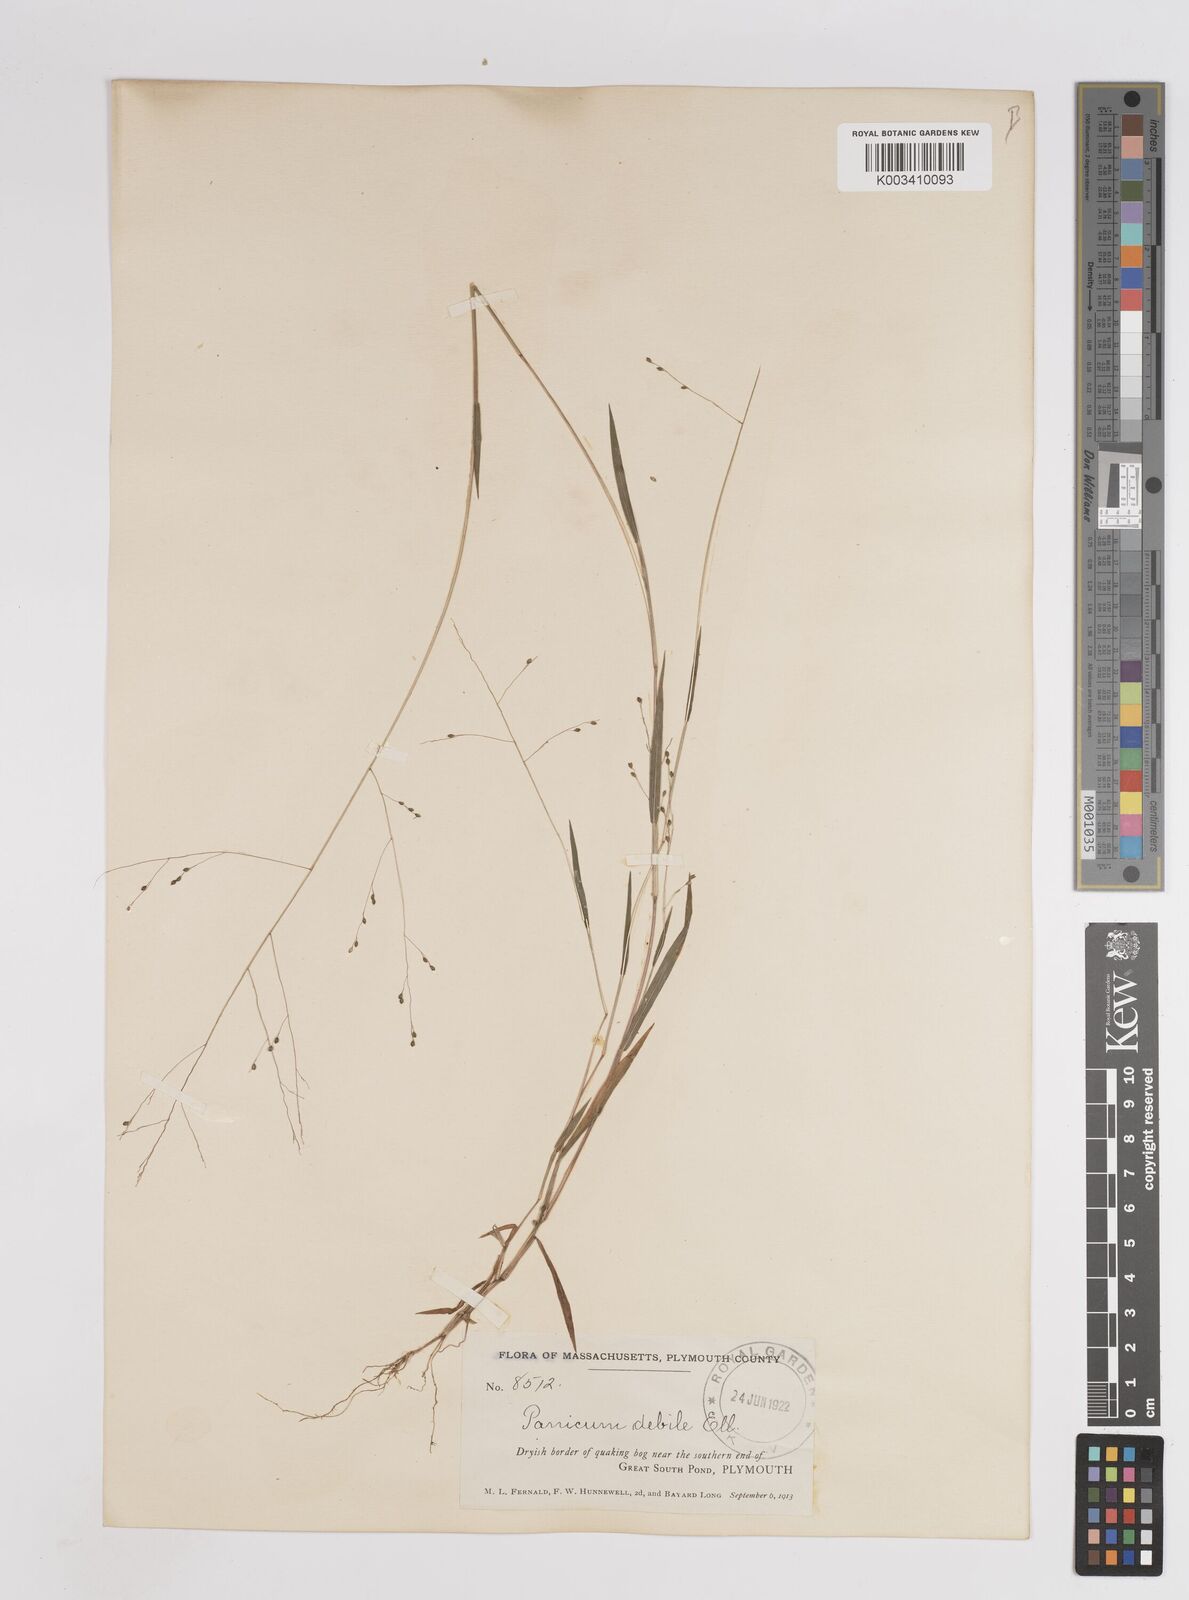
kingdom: Plantae
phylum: Tracheophyta
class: Liliopsida
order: Poales
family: Poaceae
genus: Kellochloa
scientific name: Kellochloa verrucosa
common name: Warty panic grass
